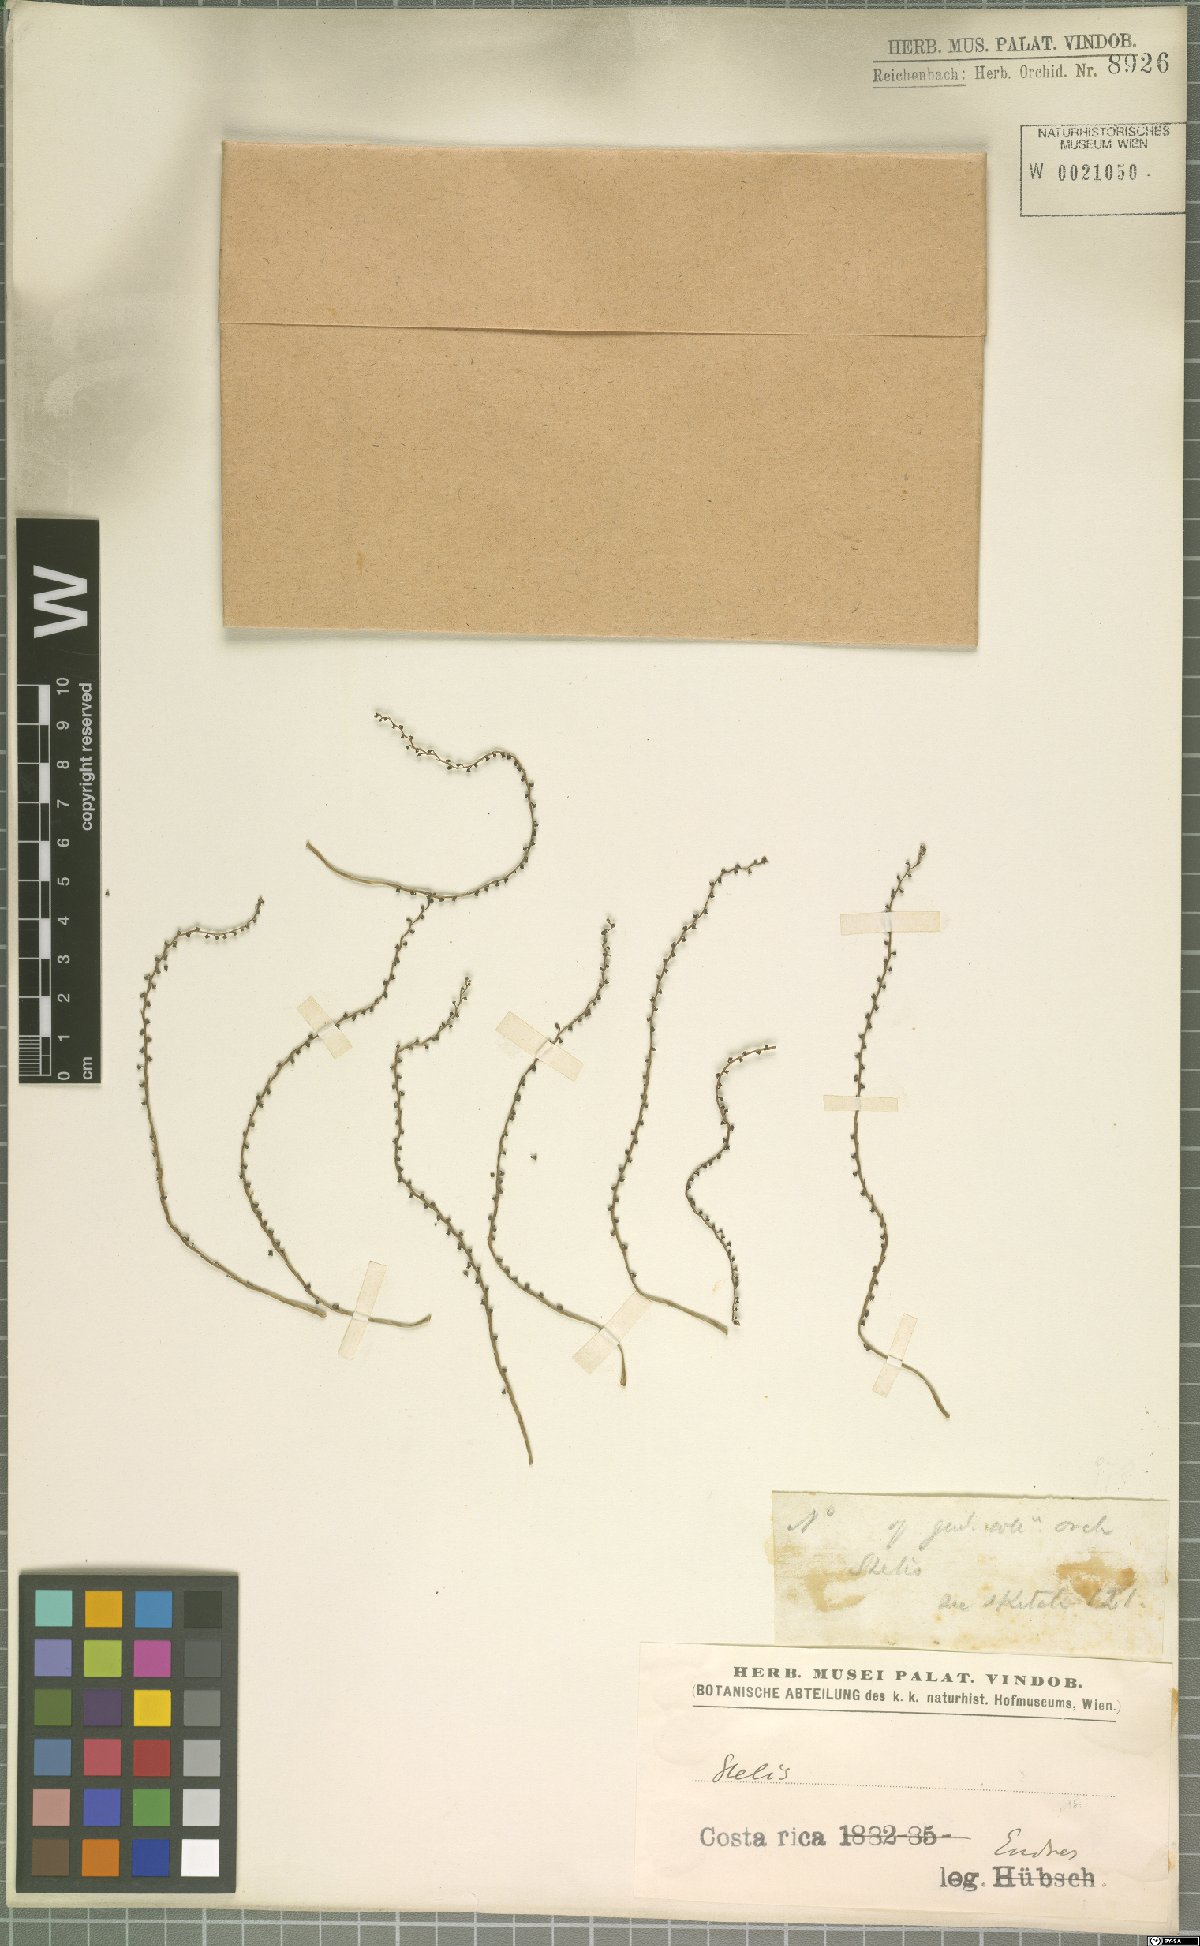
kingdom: Plantae
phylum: Tracheophyta
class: Liliopsida
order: Asparagales
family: Orchidaceae
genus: Stelis
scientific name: Stelis
